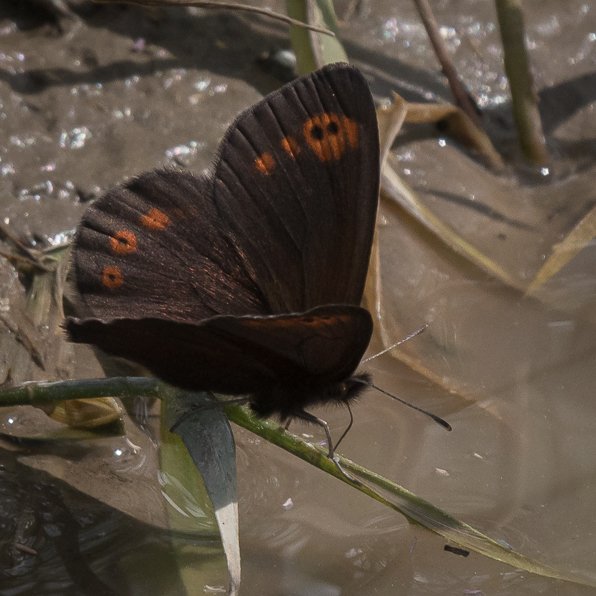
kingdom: Animalia
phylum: Arthropoda
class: Insecta
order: Lepidoptera
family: Nymphalidae
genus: Erebia
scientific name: Erebia epipsodea
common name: Common Alpine
